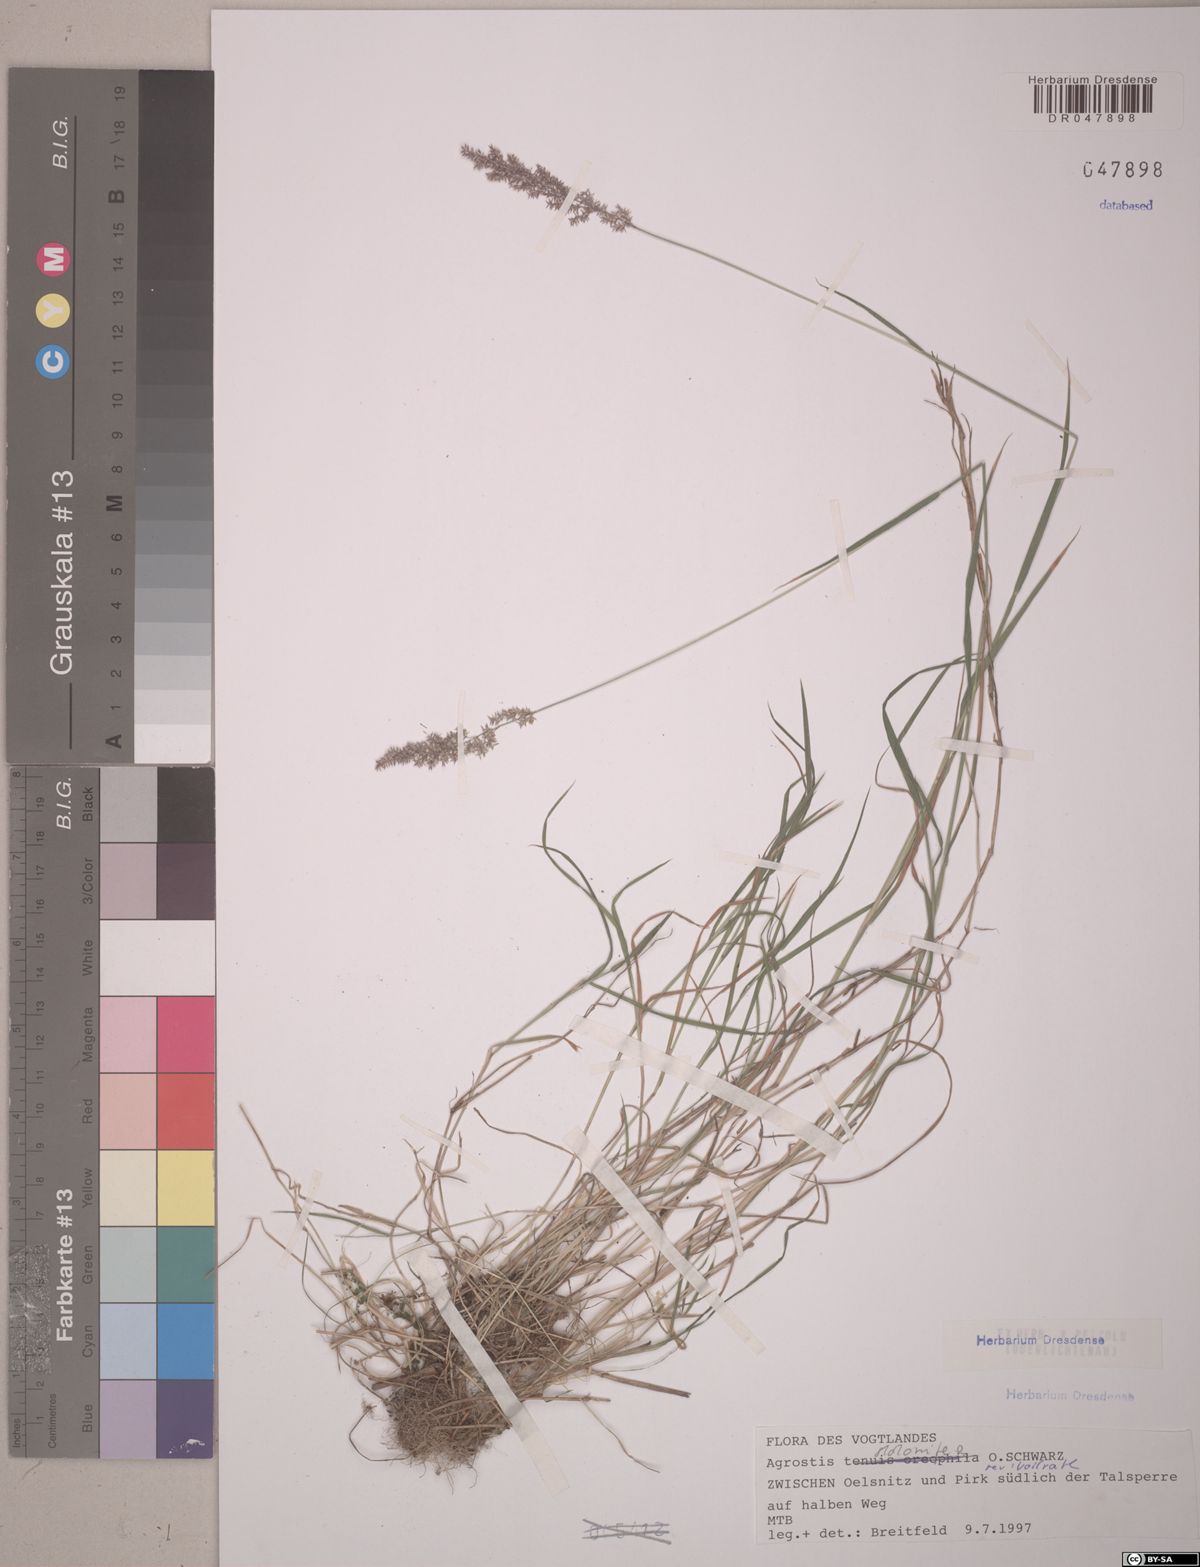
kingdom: Plantae
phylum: Tracheophyta
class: Liliopsida
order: Poales
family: Poaceae
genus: Agrostis
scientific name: Agrostis stolonifera
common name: Creeping bentgrass
